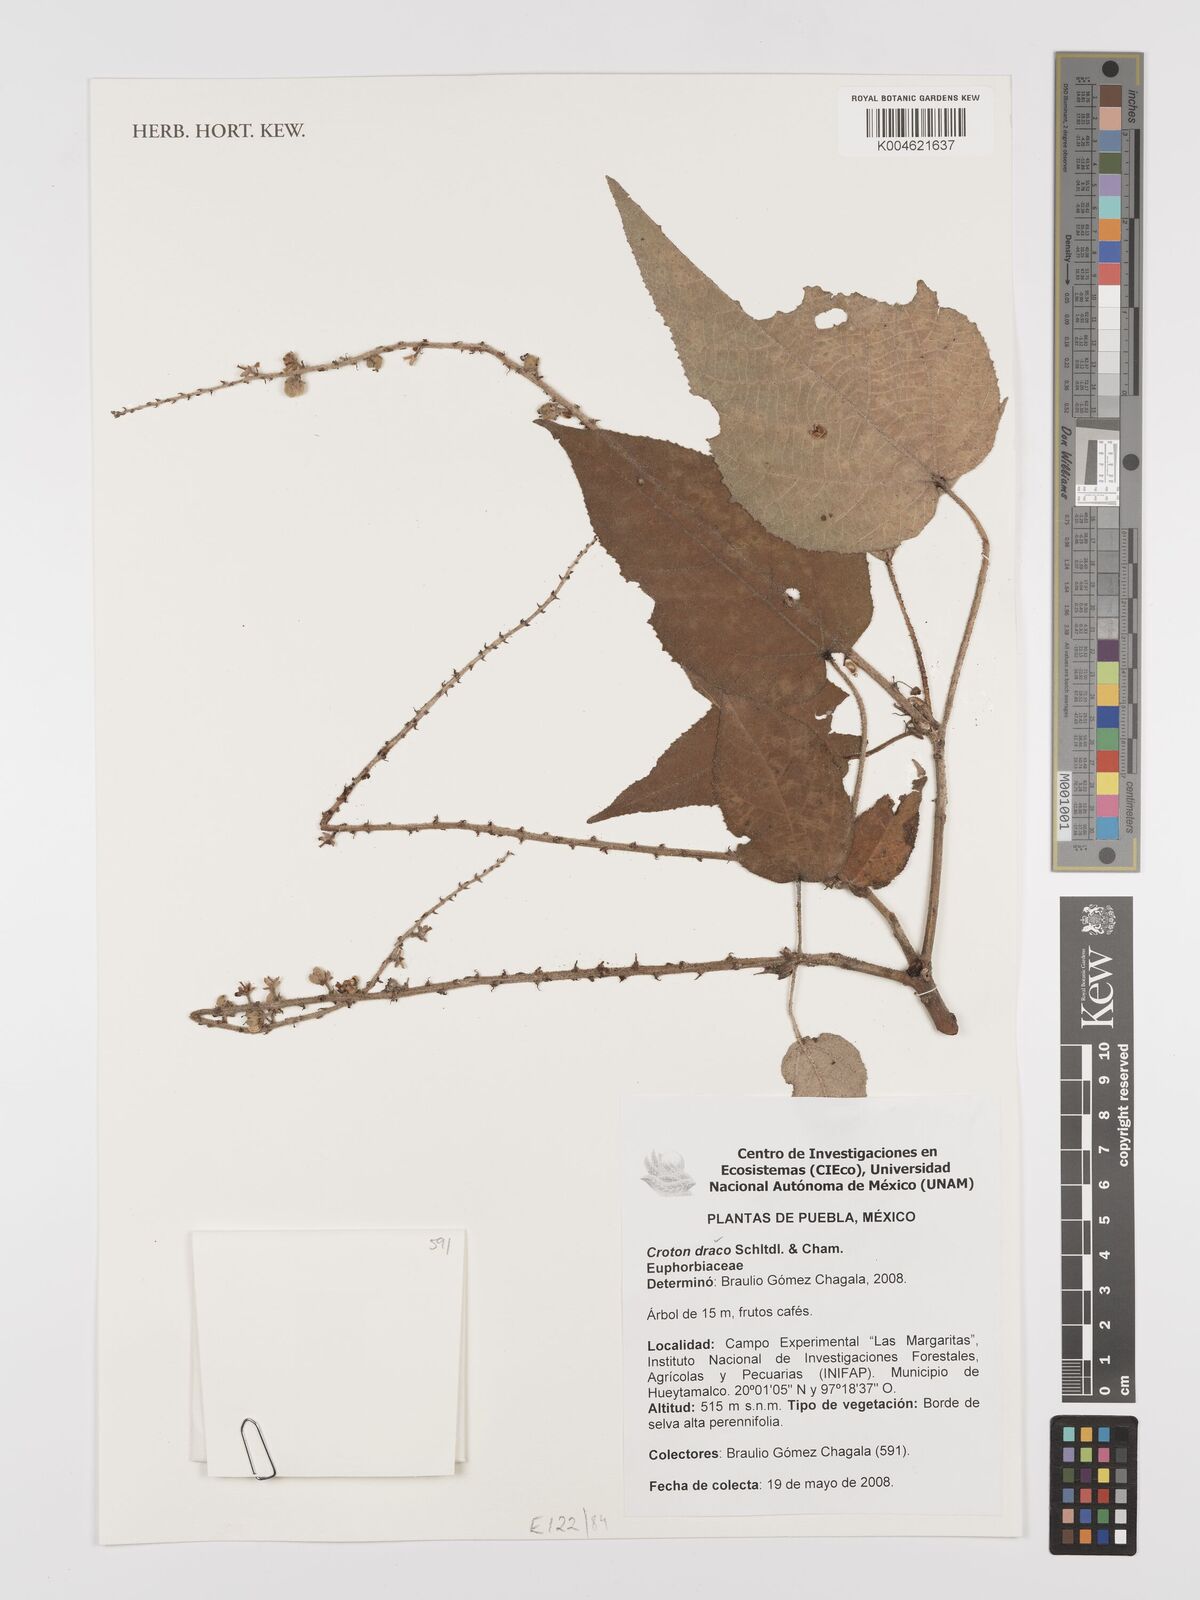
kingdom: Plantae
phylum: Tracheophyta
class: Magnoliopsida
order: Malpighiales
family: Euphorbiaceae
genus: Croton
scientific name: Croton draco
